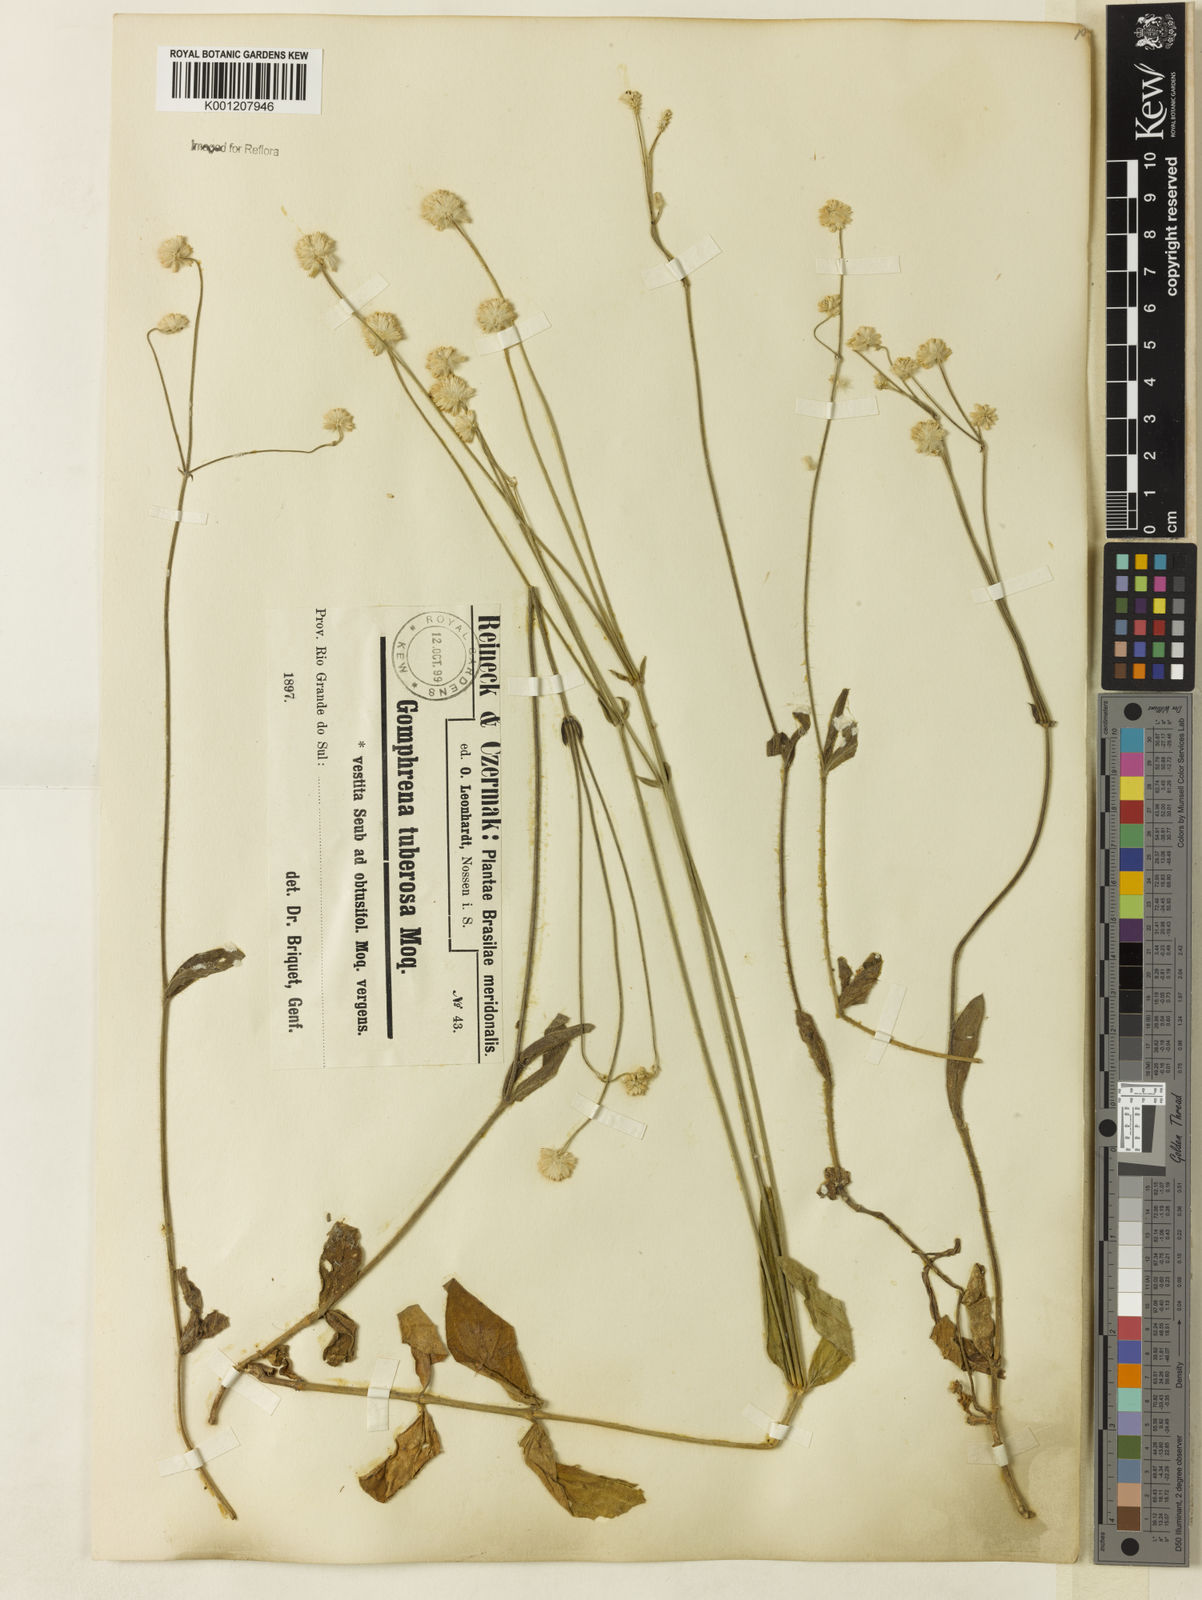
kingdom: Plantae
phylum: Tracheophyta
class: Magnoliopsida
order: Caryophyllales
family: Amaranthaceae
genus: Pfaffia
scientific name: Pfaffia tuberosa
